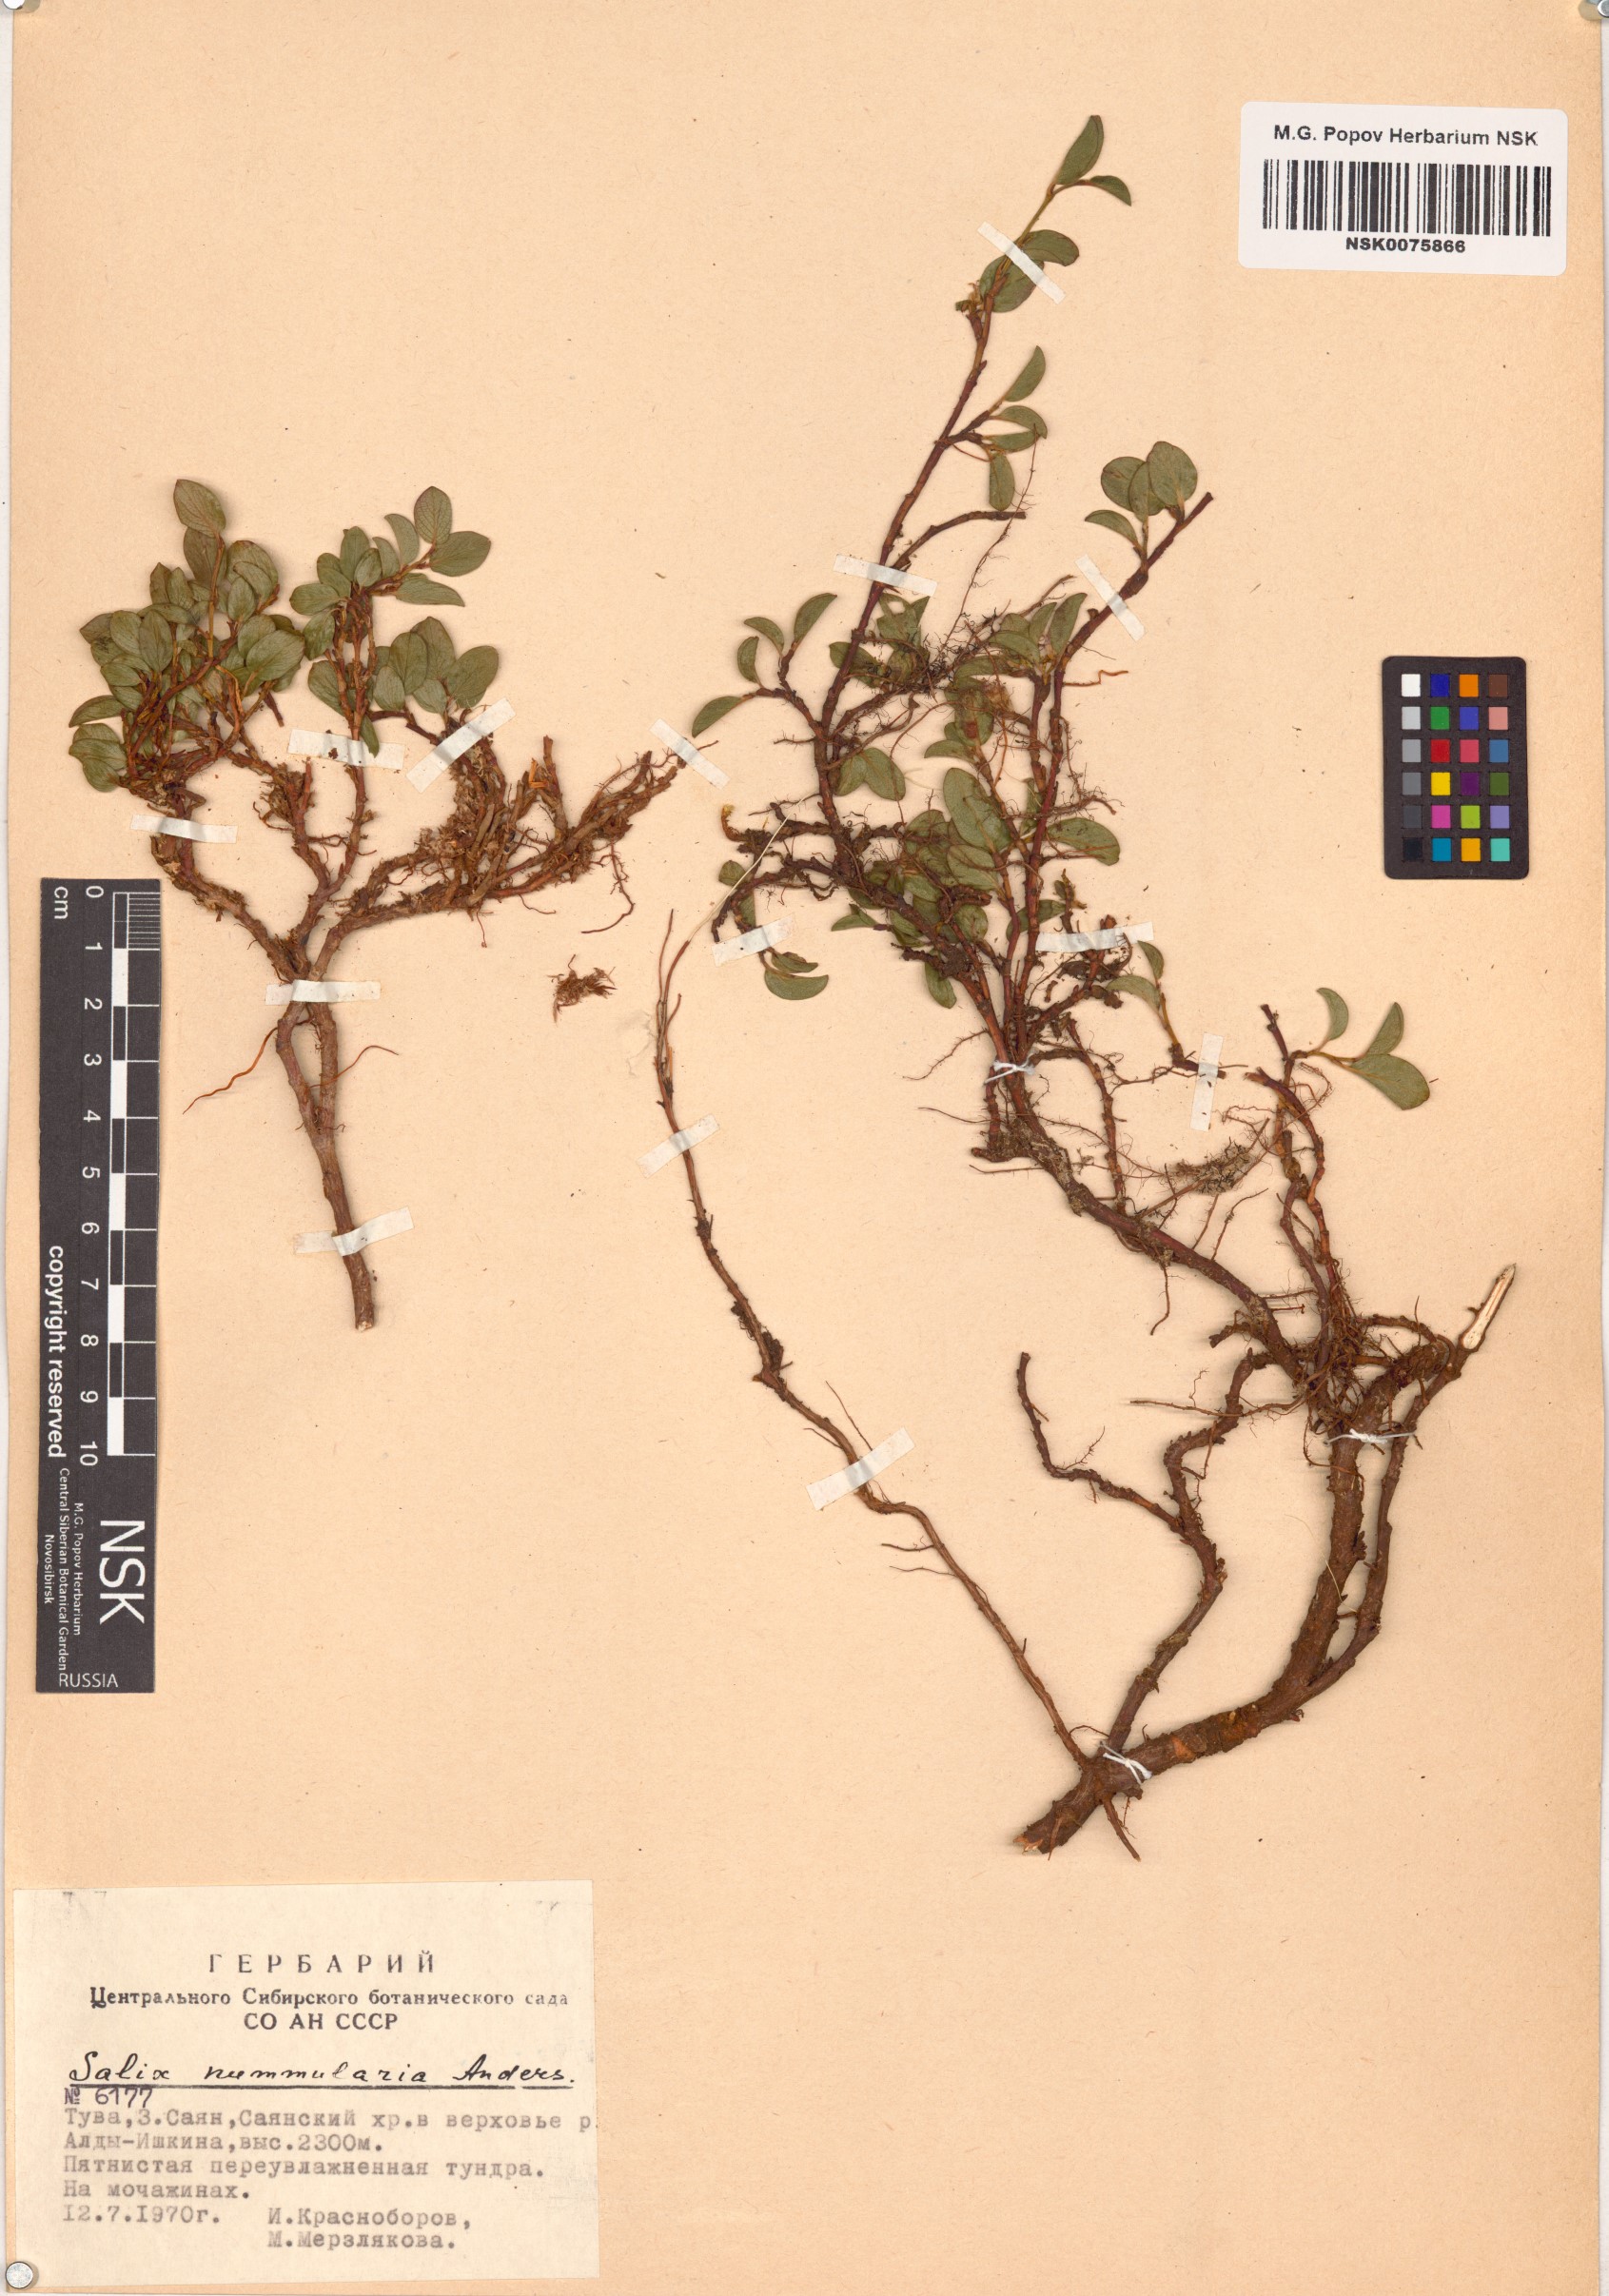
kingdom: Plantae
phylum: Tracheophyta
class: Magnoliopsida
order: Malpighiales
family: Salicaceae
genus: Salix
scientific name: Salix nummularia
